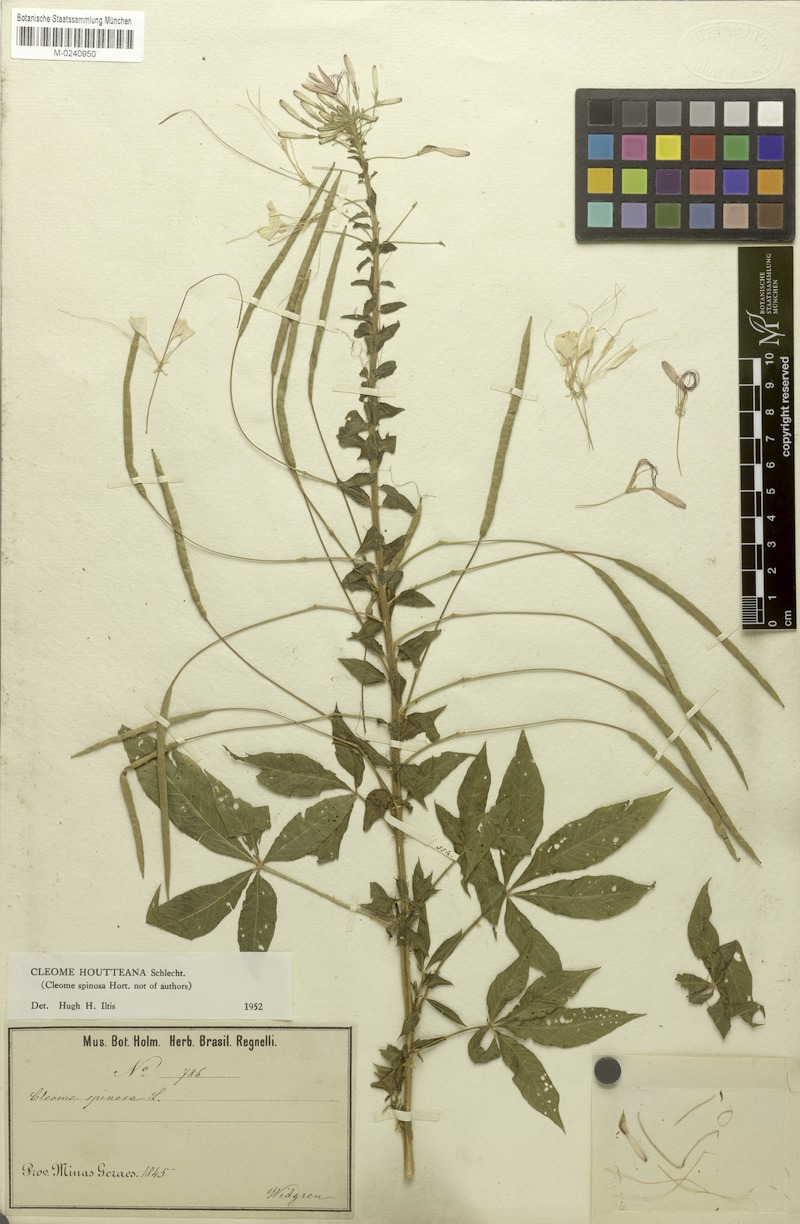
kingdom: Plantae
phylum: Tracheophyta
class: Magnoliopsida
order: Brassicales
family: Cleomaceae
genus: Tarenaya
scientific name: Tarenaya houtteana
